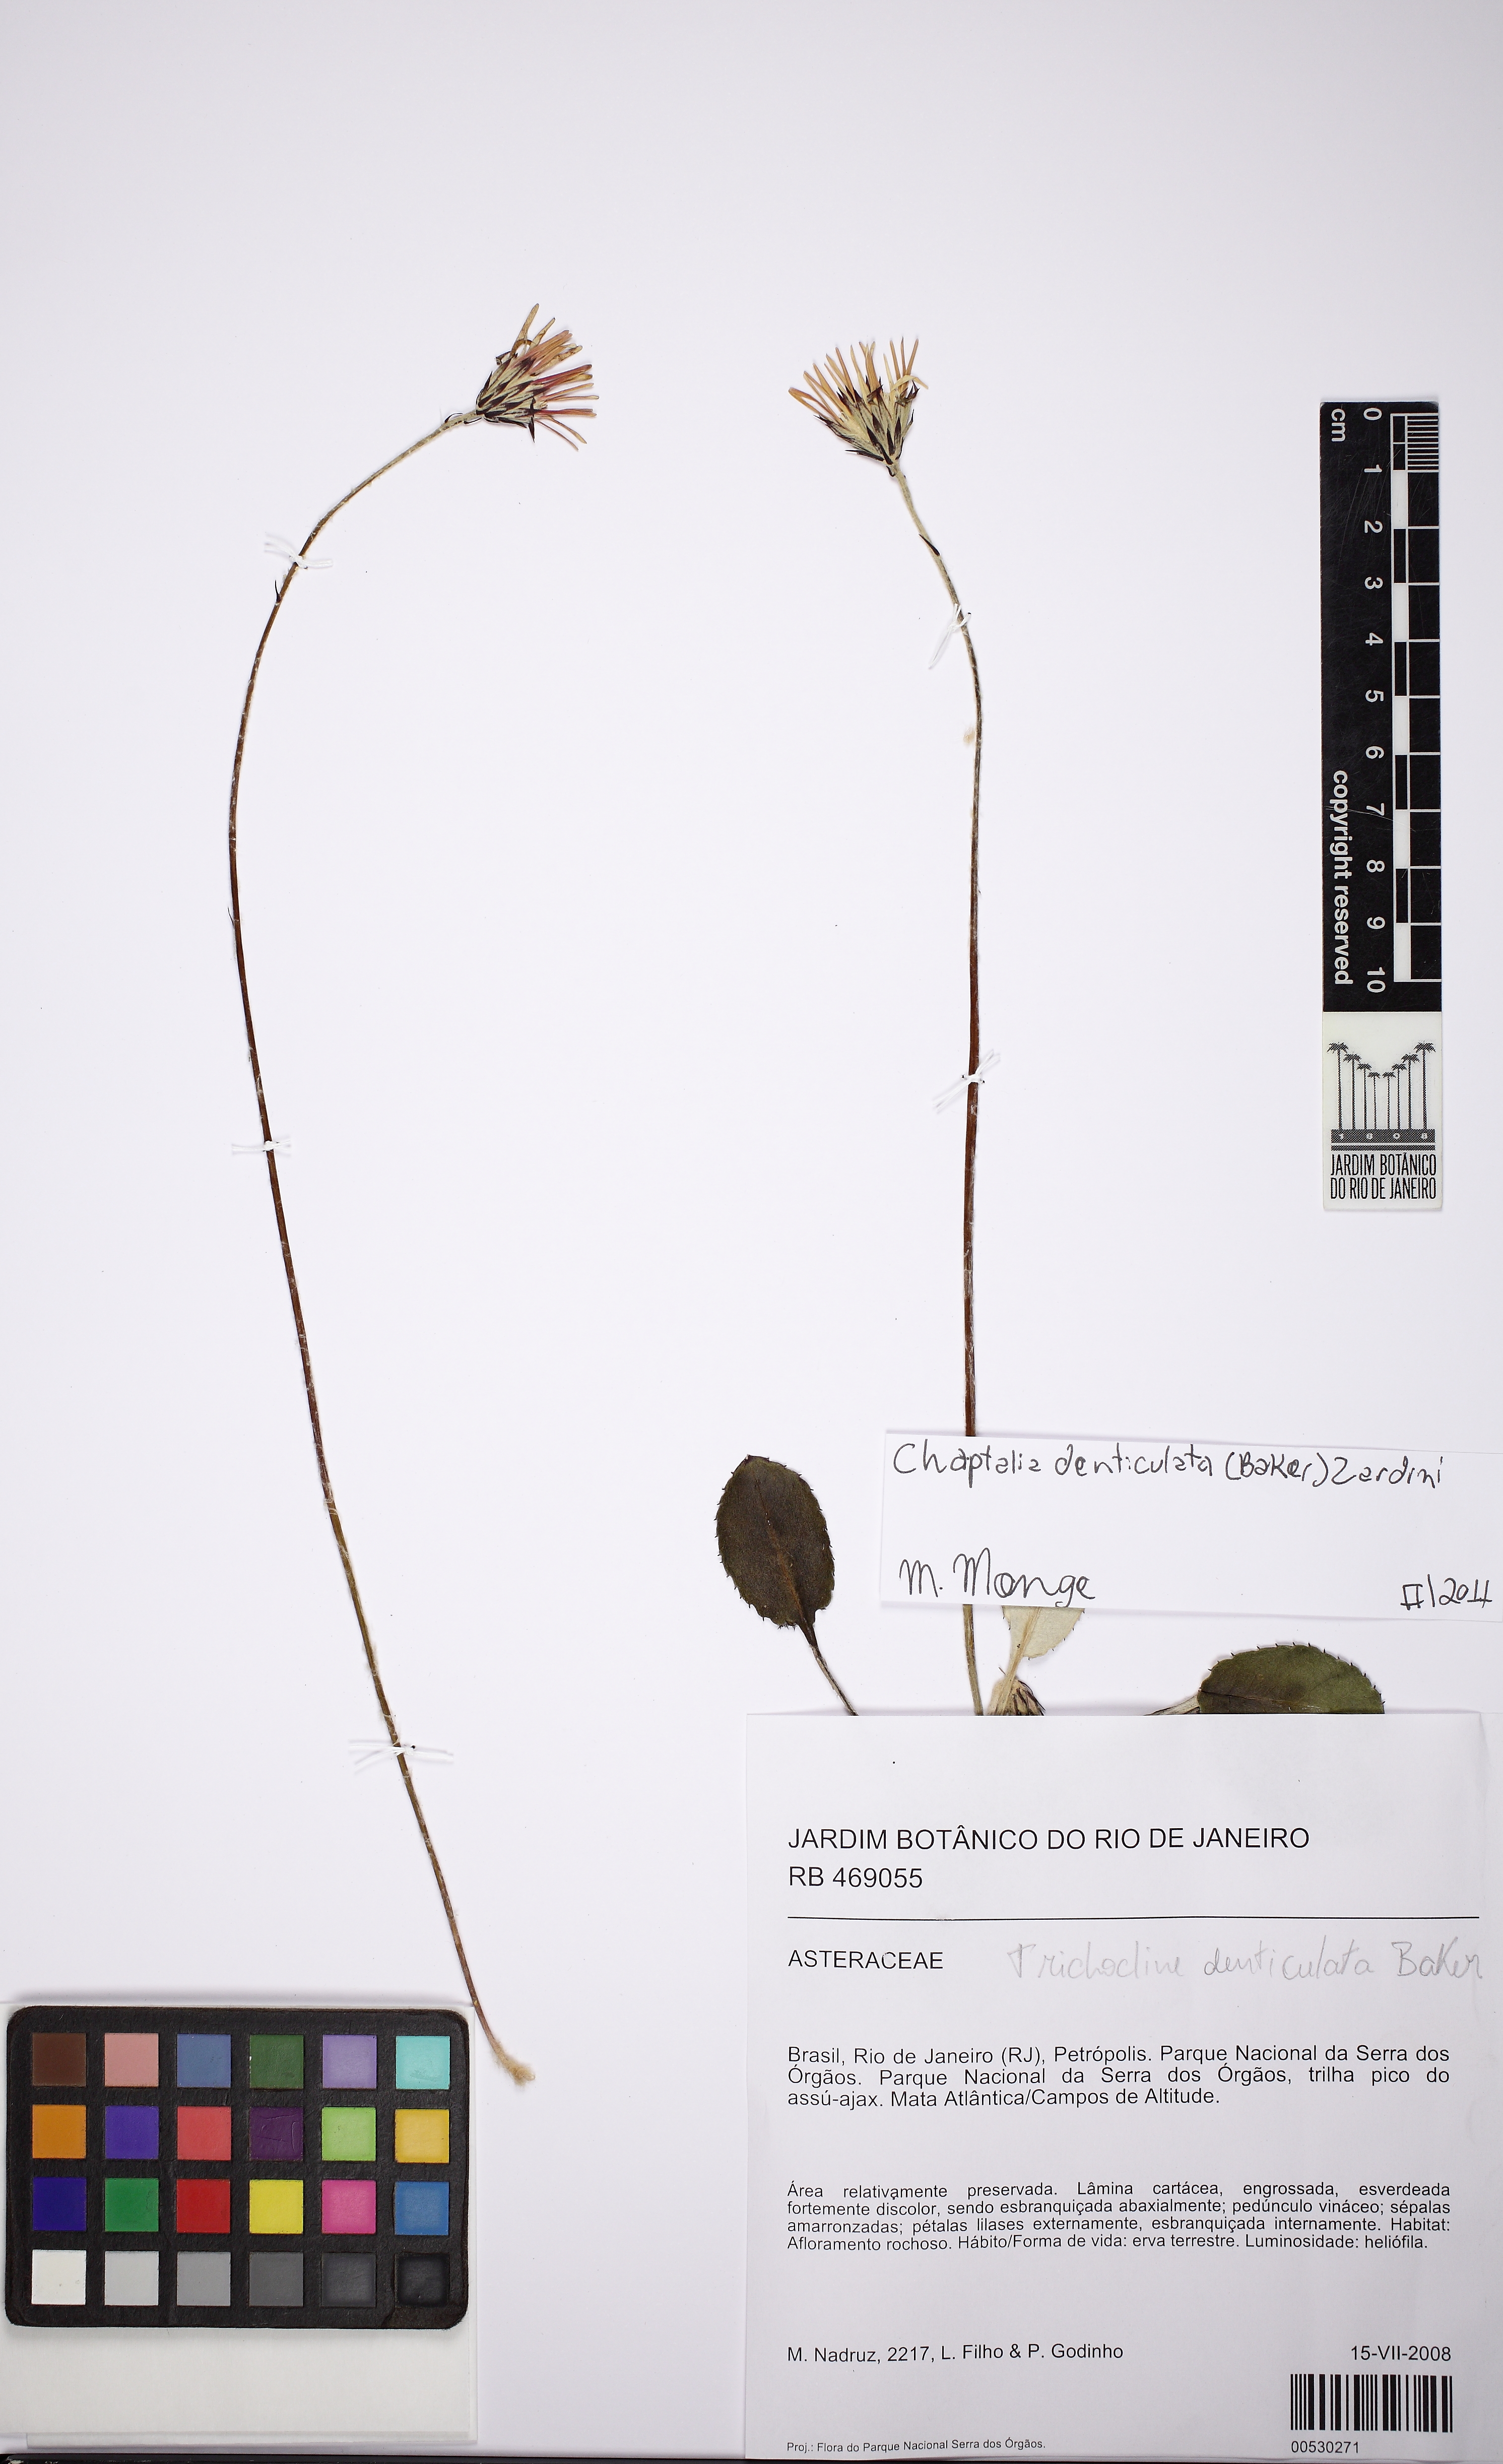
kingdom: Plantae
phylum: Tracheophyta
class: Magnoliopsida
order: Asterales
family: Asteraceae
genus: Chaptalia
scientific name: Chaptalia denticulata
